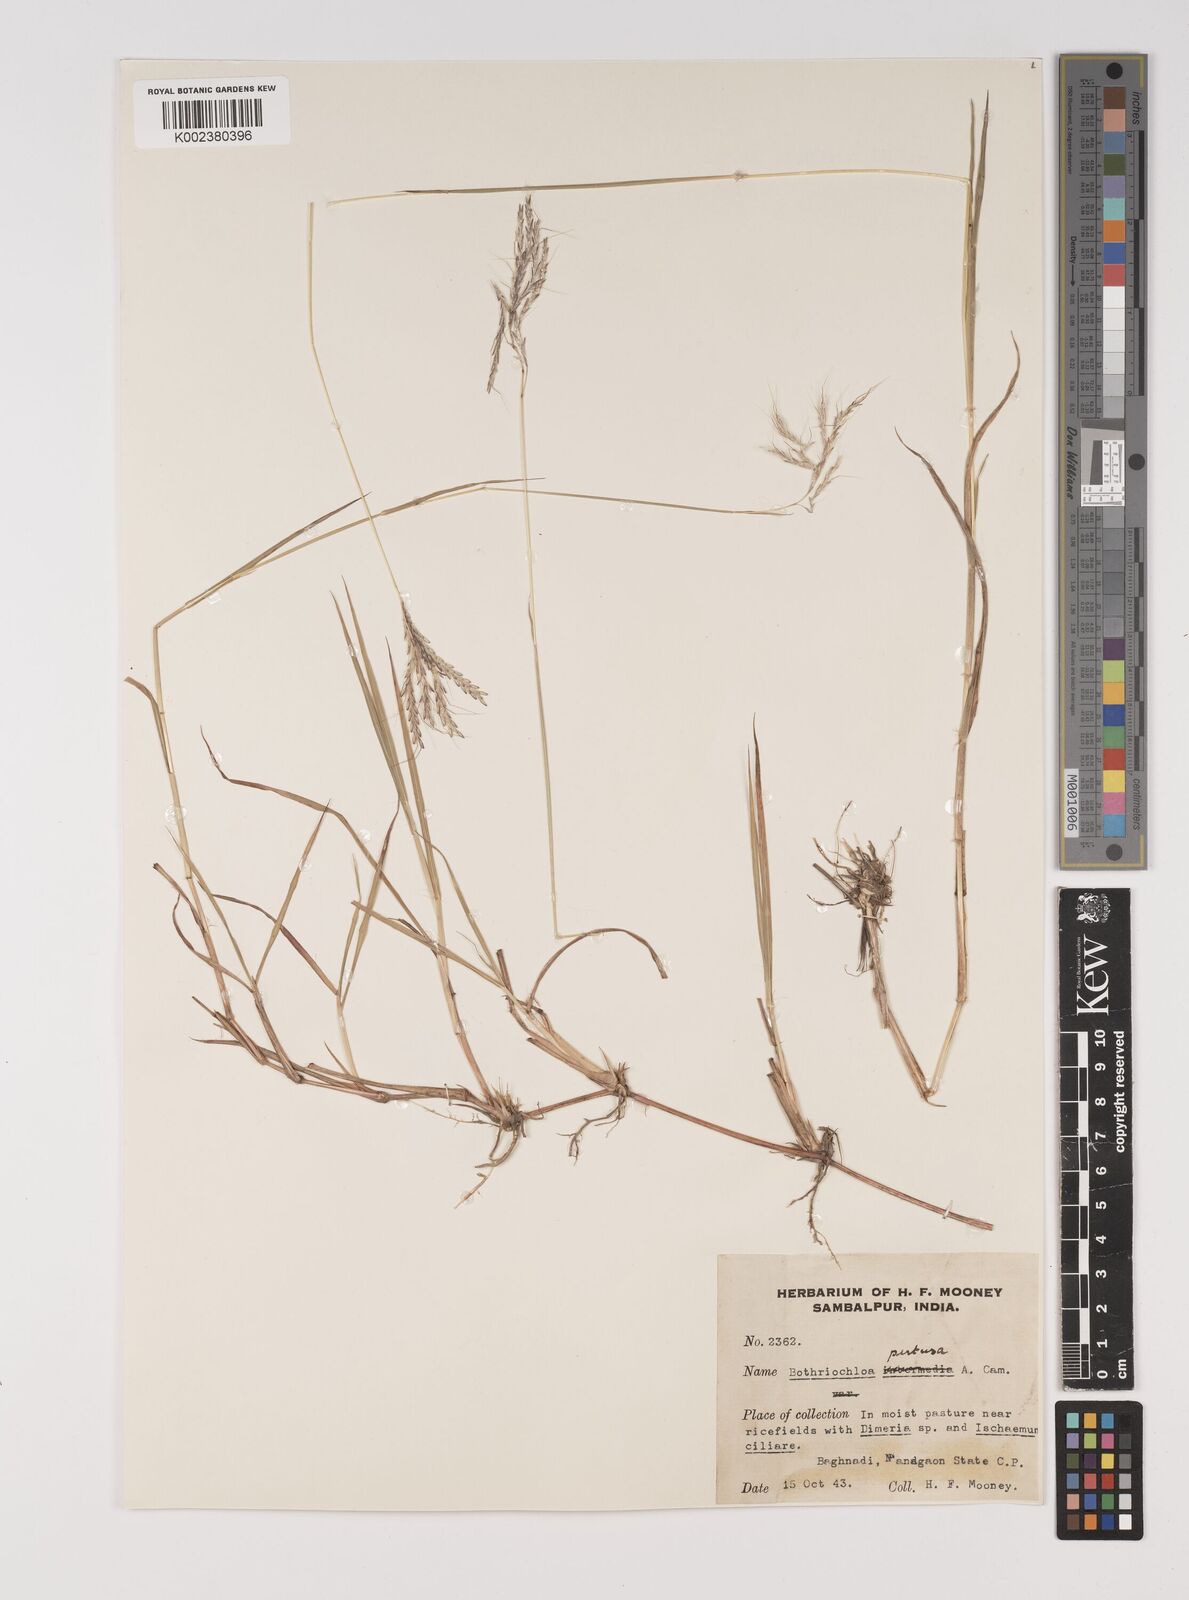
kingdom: Plantae
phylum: Tracheophyta
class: Liliopsida
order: Poales
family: Poaceae
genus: Bothriochloa
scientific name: Bothriochloa pertusa
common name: Pitted beardgrass
